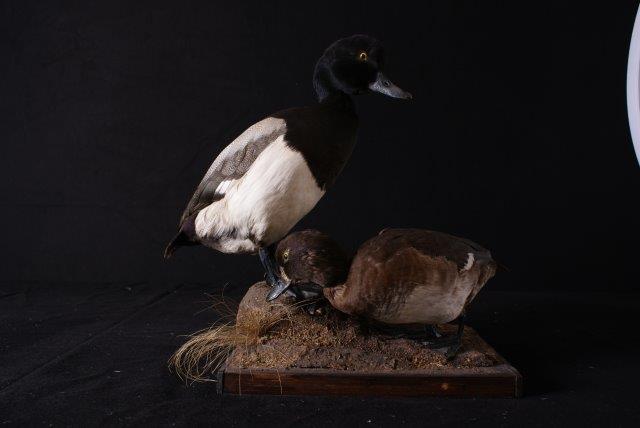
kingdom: Animalia
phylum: Chordata
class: Aves
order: Anseriformes
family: Anatidae
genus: Aythya
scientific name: Aythya marila
